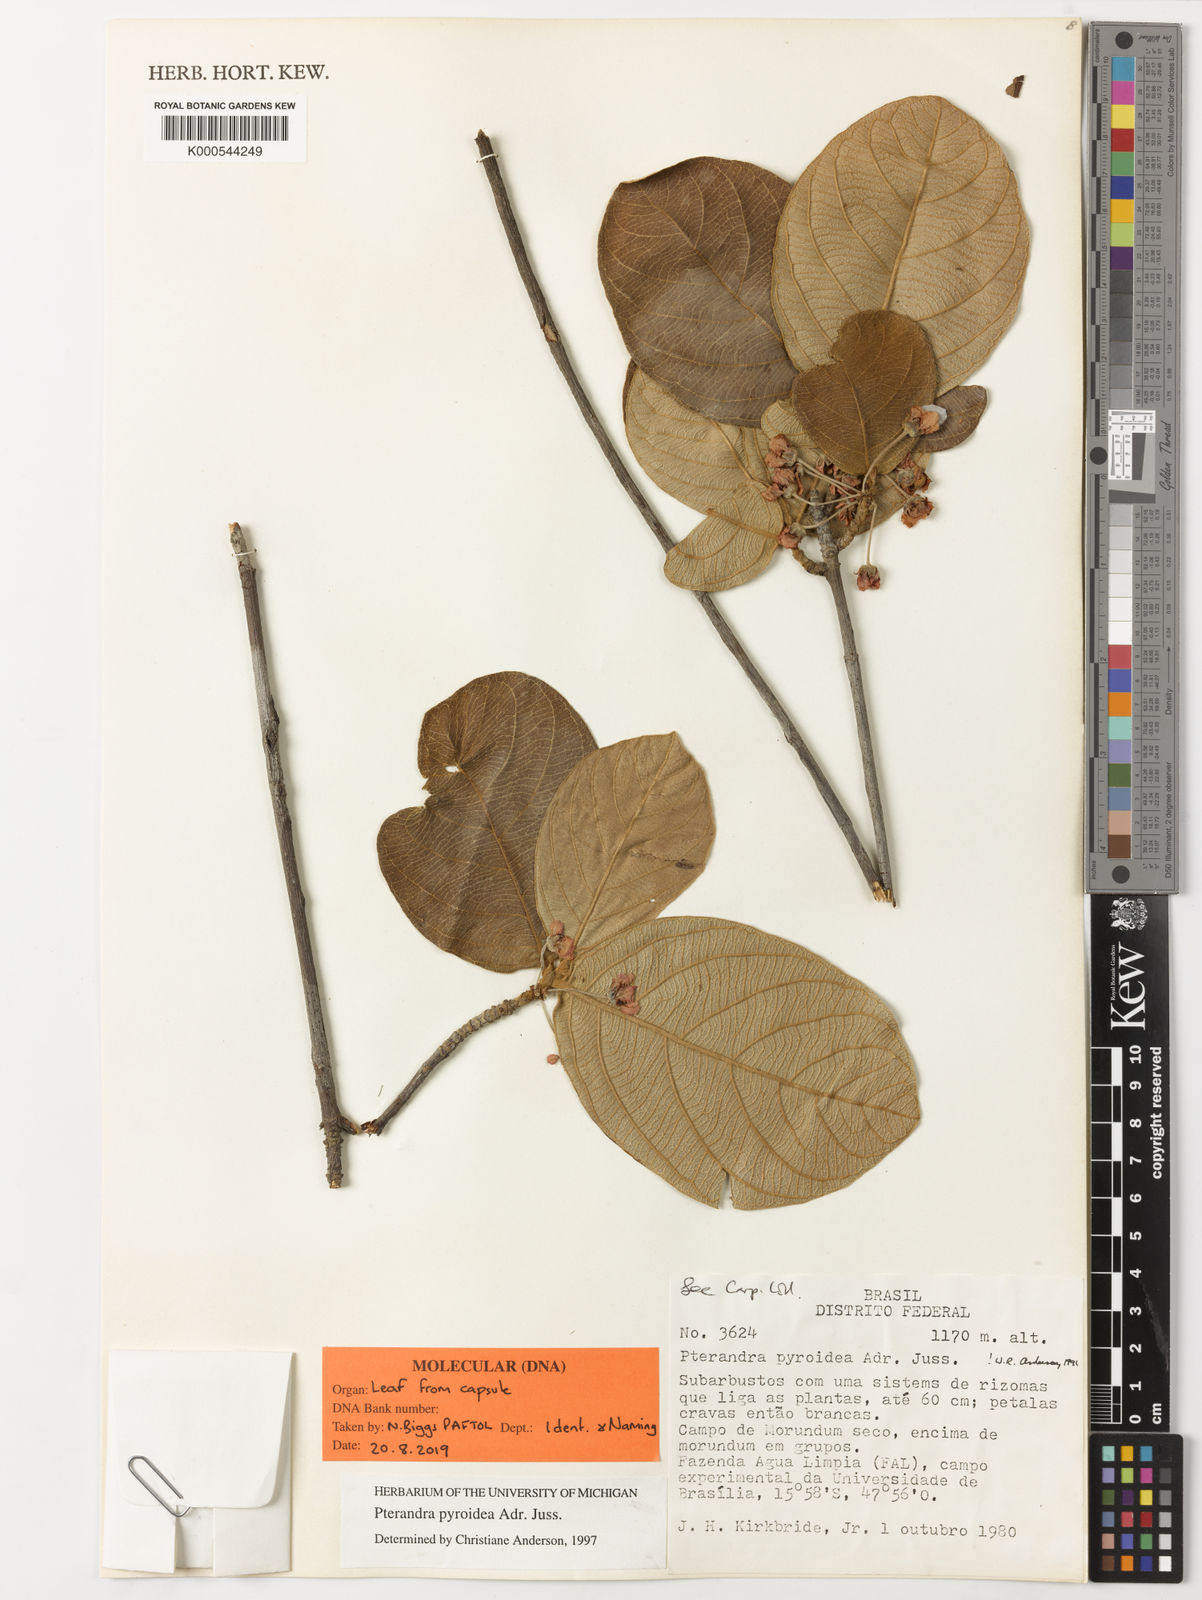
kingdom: Plantae
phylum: Tracheophyta
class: Magnoliopsida
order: Malpighiales
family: Malpighiaceae
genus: Pterandra
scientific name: Pterandra pyroidea
